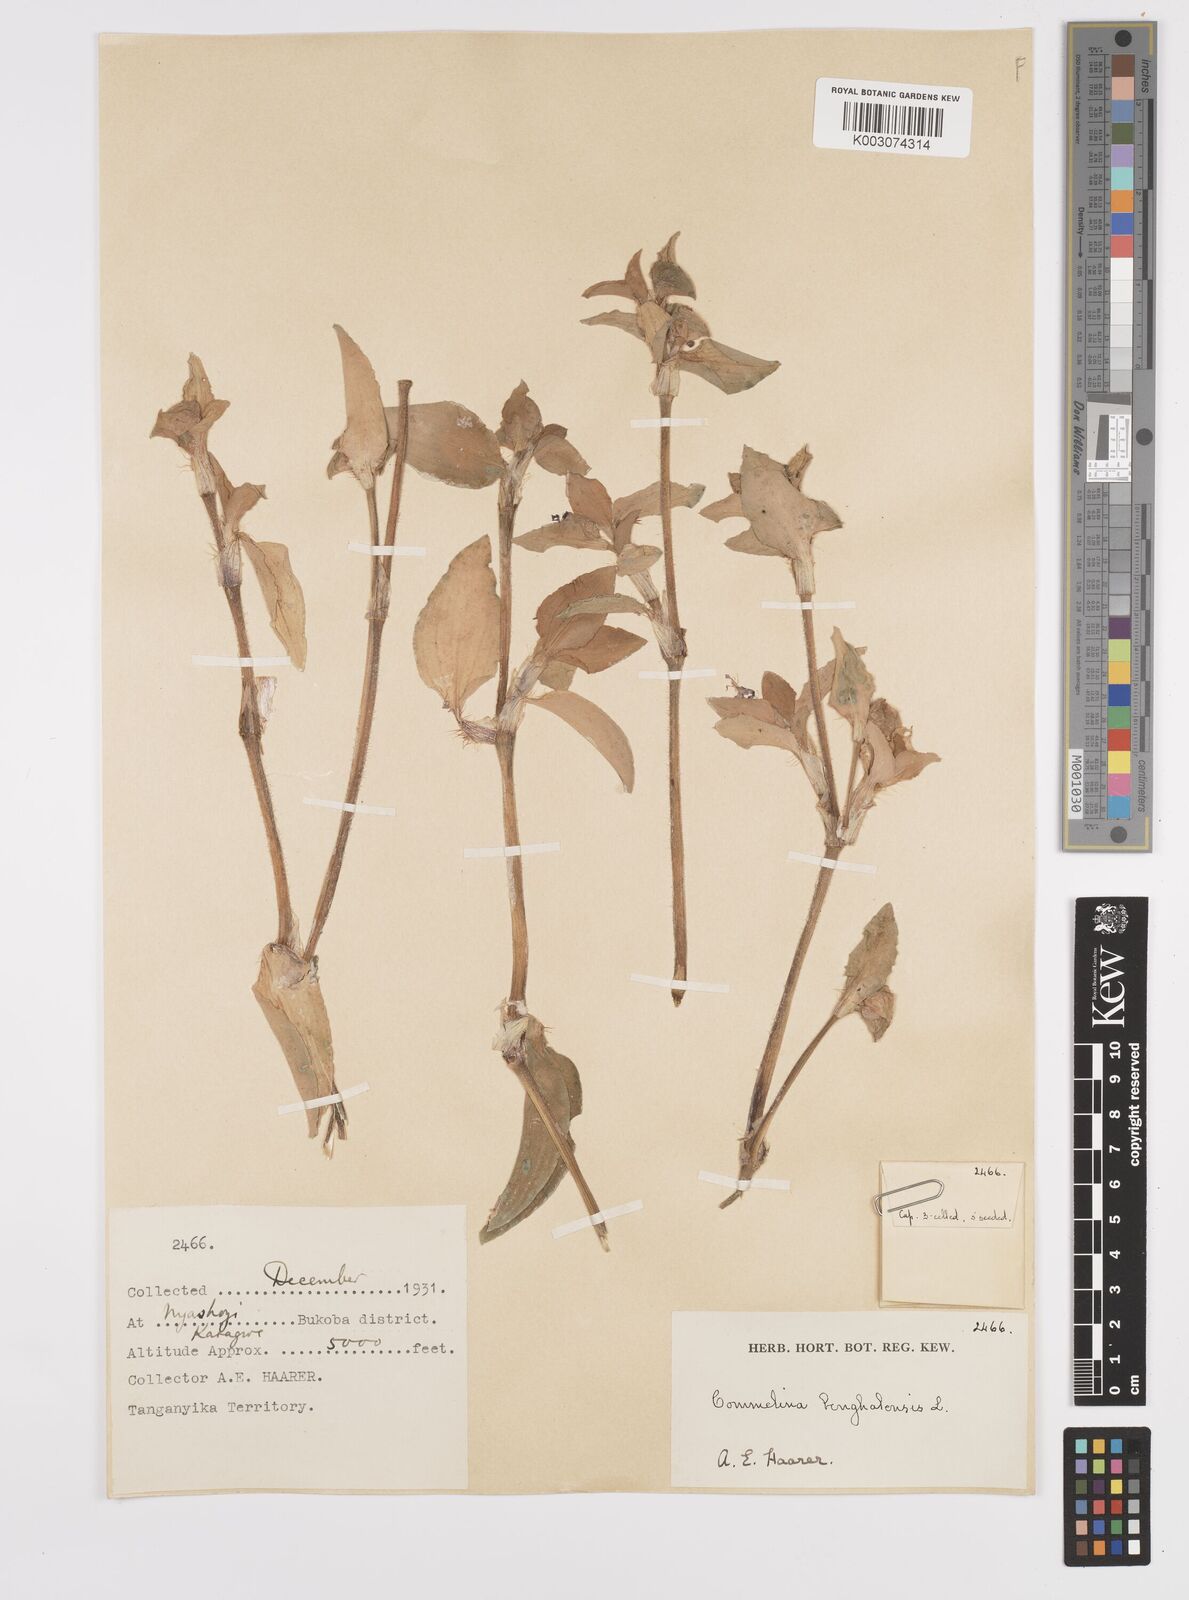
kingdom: Plantae
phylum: Tracheophyta
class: Liliopsida
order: Commelinales
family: Commelinaceae
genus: Commelina
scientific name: Commelina benghalensis
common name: Jio
